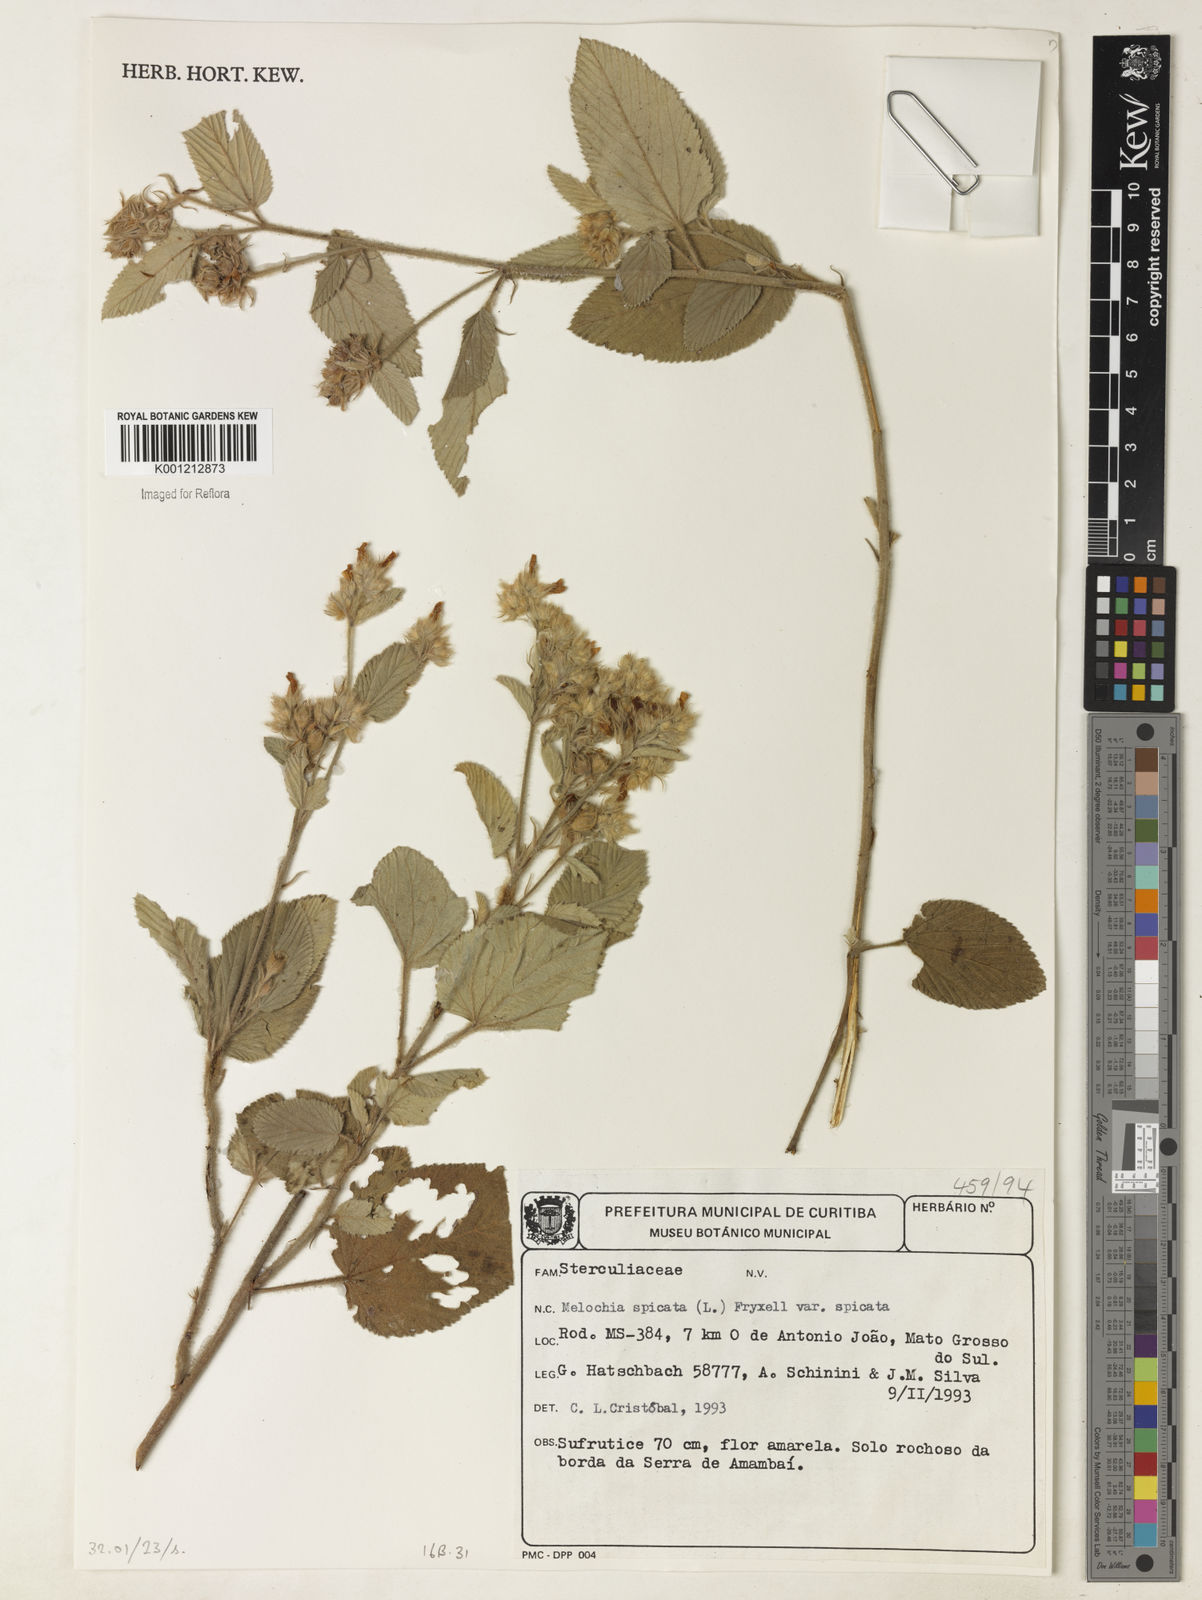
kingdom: Plantae
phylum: Tracheophyta
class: Magnoliopsida
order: Malvales
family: Malvaceae
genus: Melochia
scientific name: Melochia spicata
